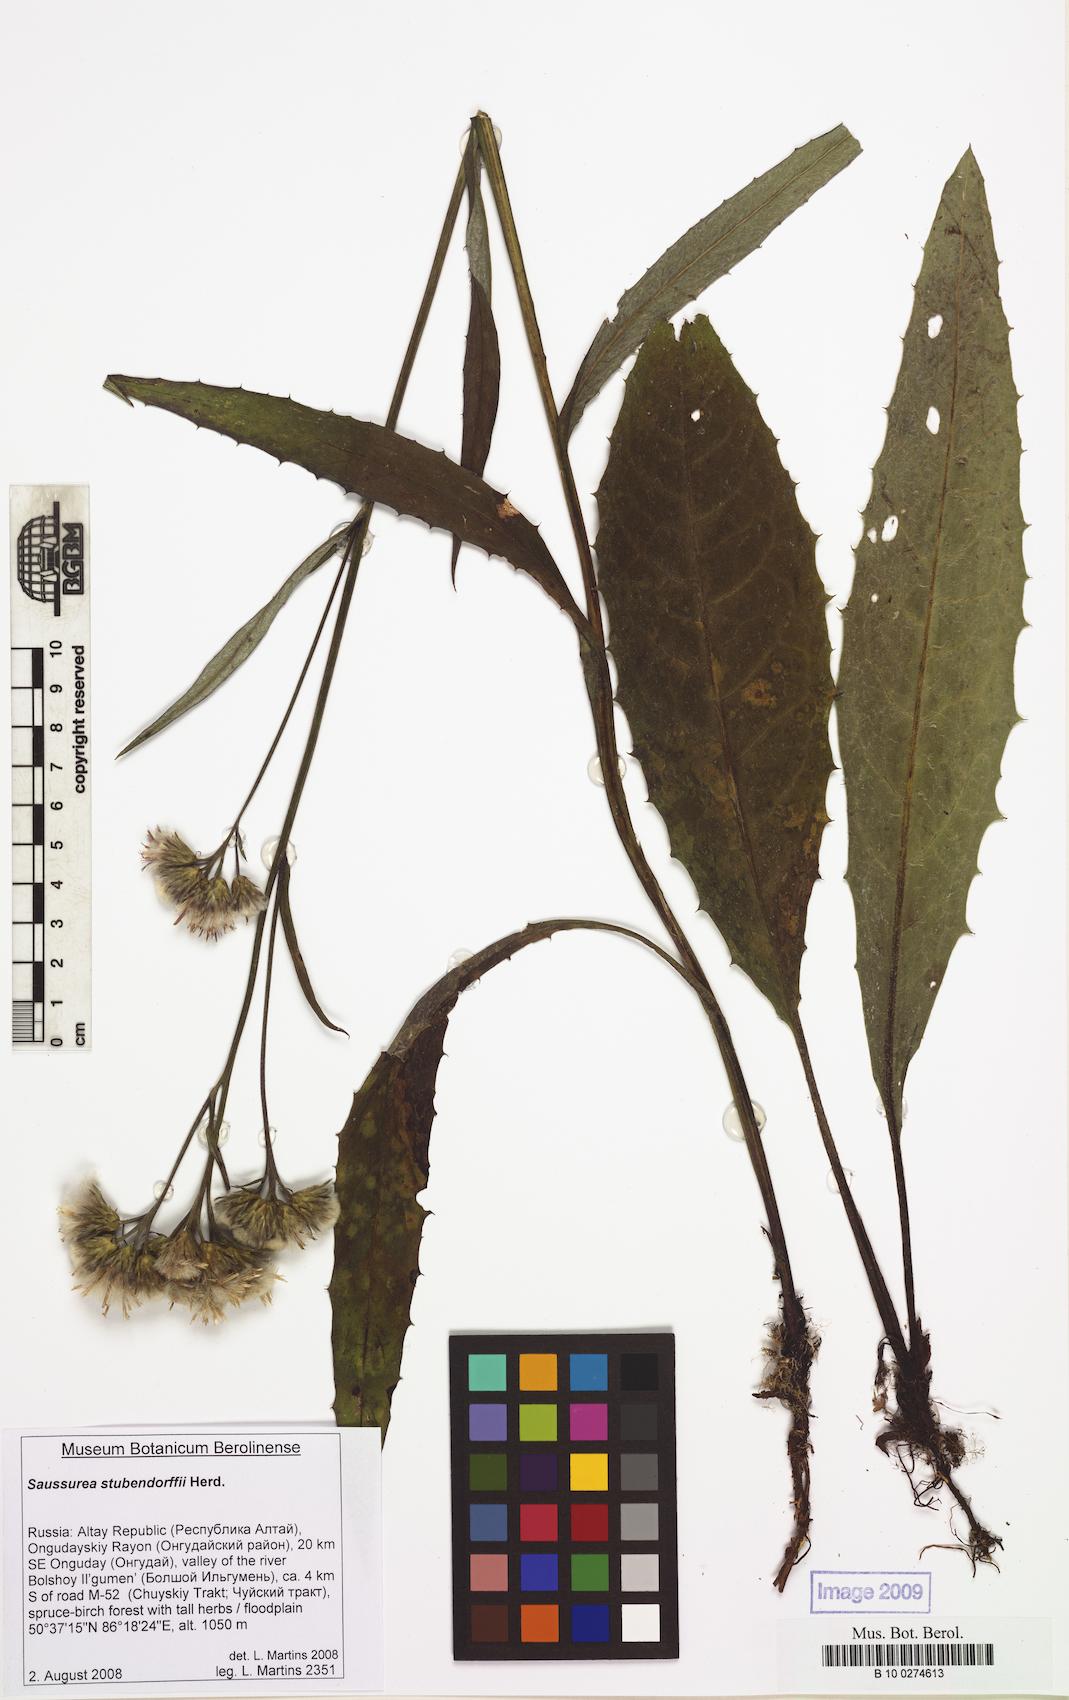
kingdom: Plantae
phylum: Tracheophyta
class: Magnoliopsida
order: Asterales
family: Asteraceae
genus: Saussurea
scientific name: Saussurea stubendorffii
